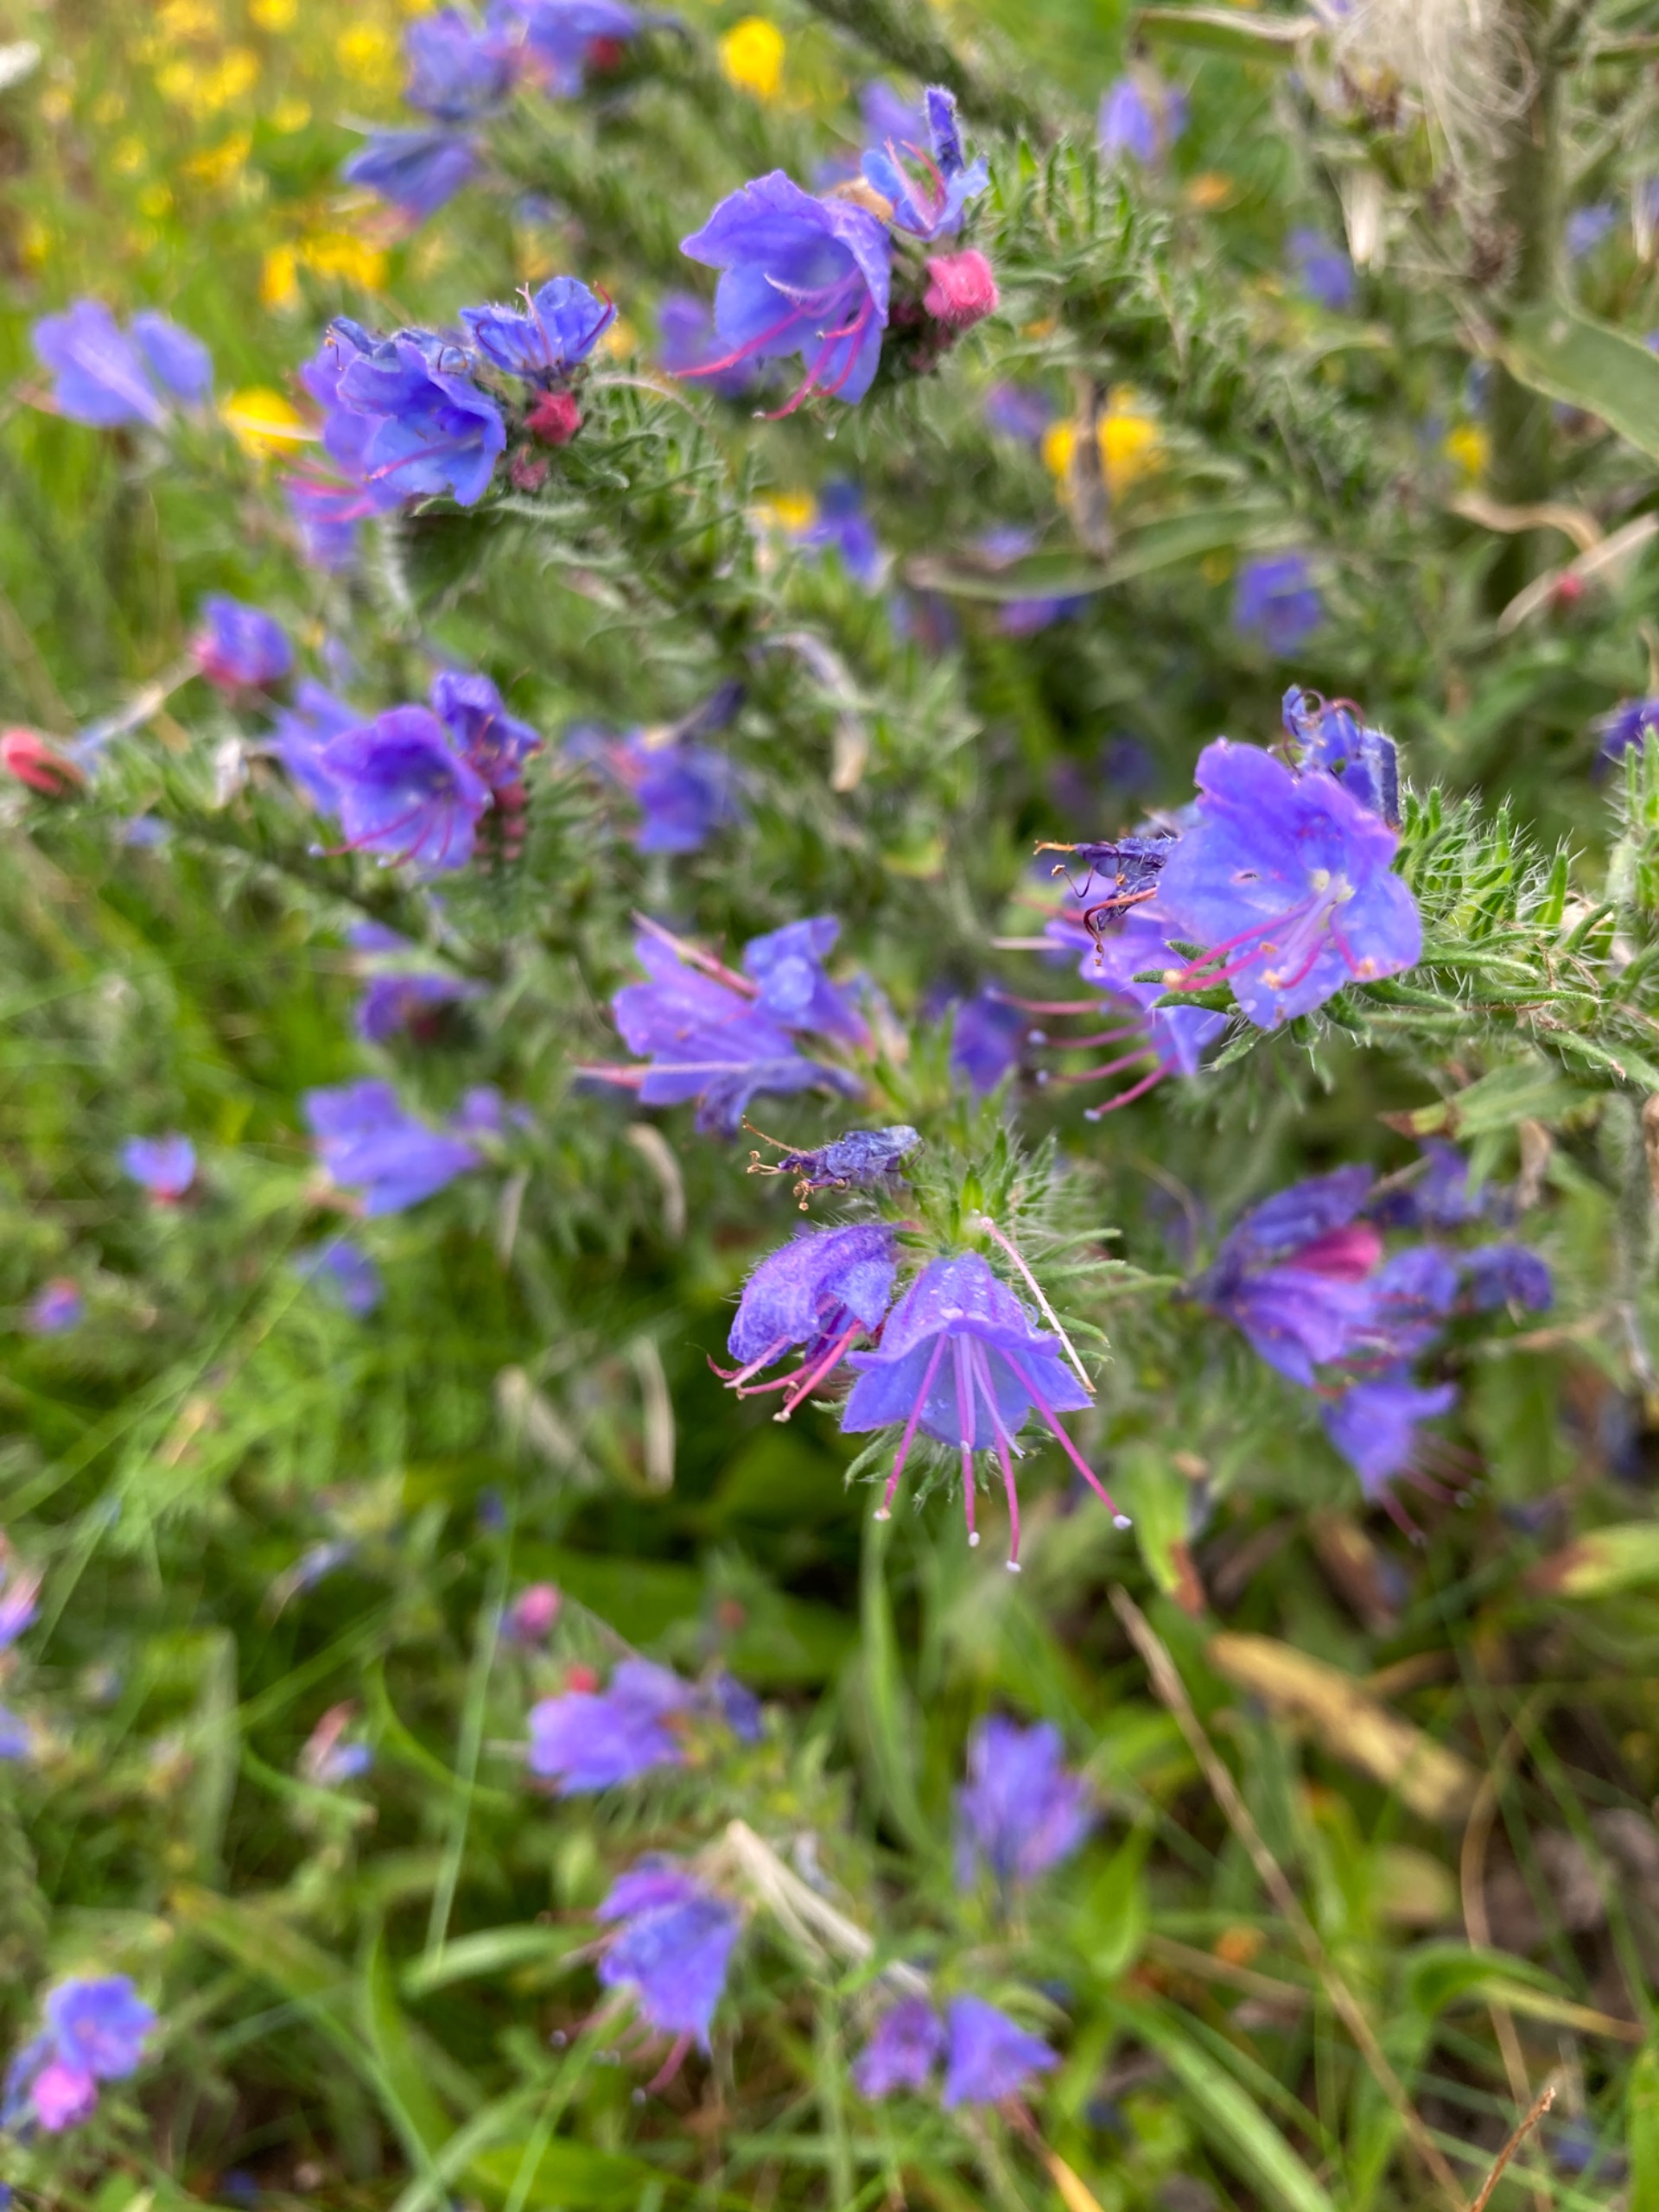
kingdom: Plantae
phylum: Tracheophyta
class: Magnoliopsida
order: Boraginales
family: Boraginaceae
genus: Echium
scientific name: Echium vulgare
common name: Slangehoved
